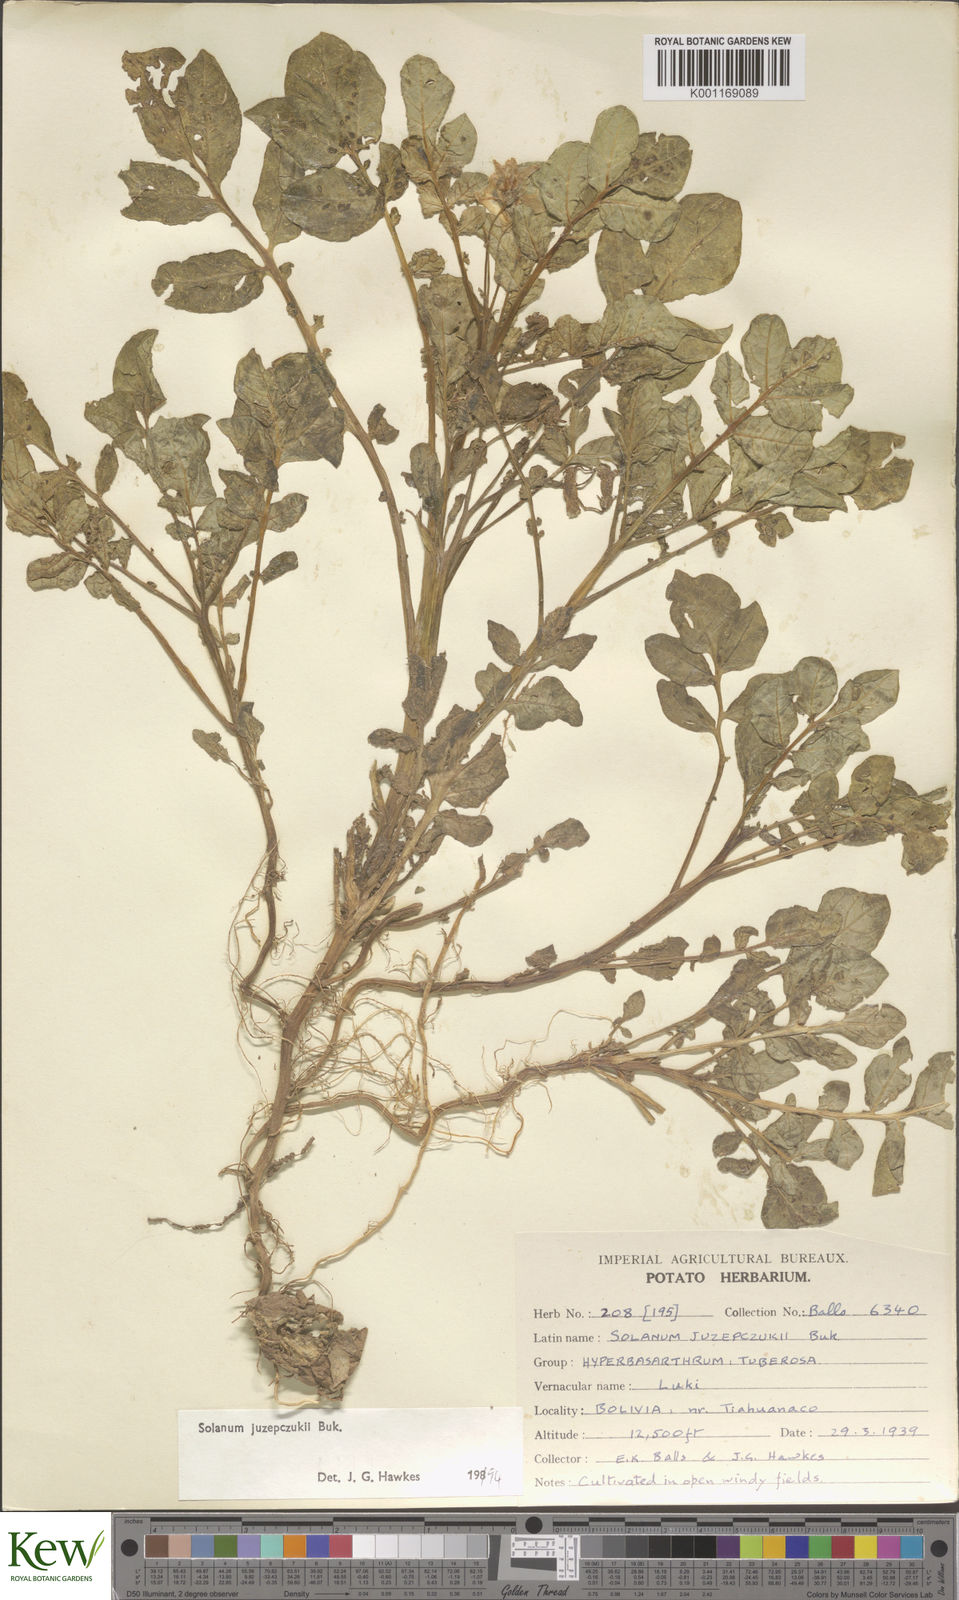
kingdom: Plantae
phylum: Tracheophyta
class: Magnoliopsida
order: Solanales
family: Solanaceae
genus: Solanum
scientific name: Solanum juzepczukii
